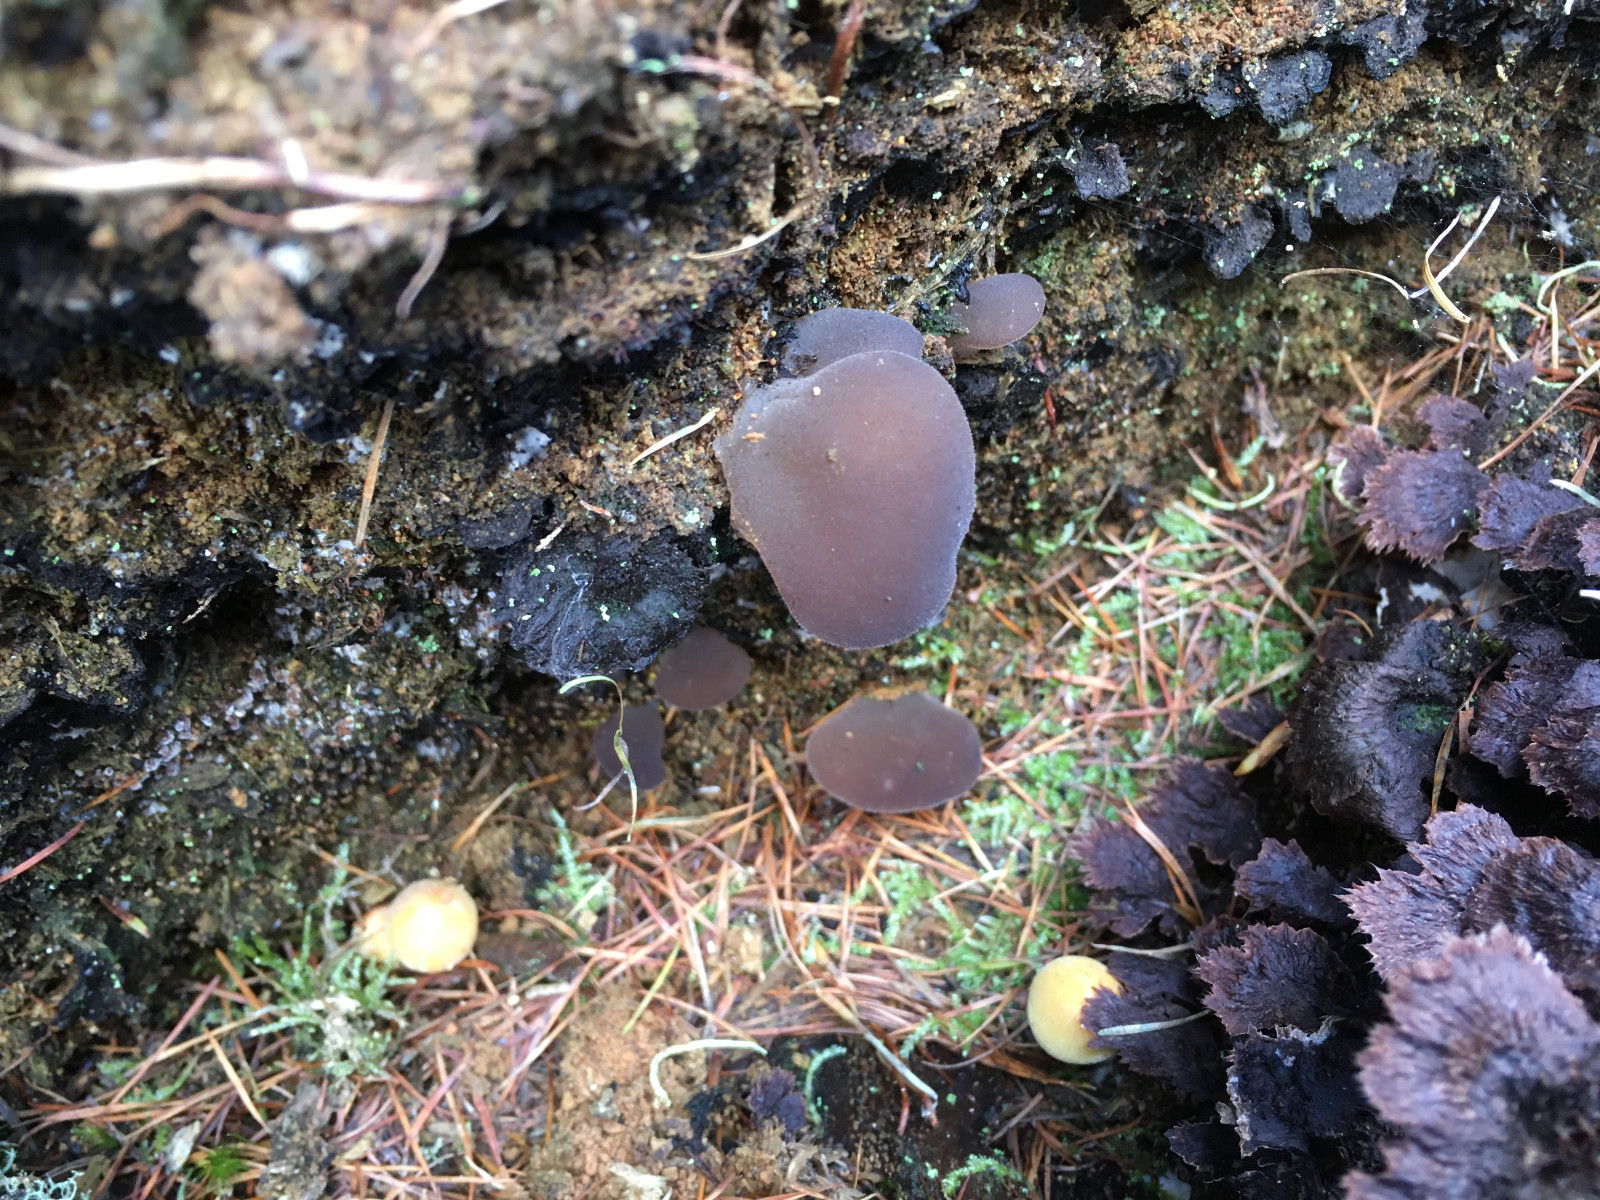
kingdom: Fungi
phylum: Basidiomycota
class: Tremellomycetes
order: Tremellales
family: Exidiaceae
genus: Pseudohydnum
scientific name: Pseudohydnum
